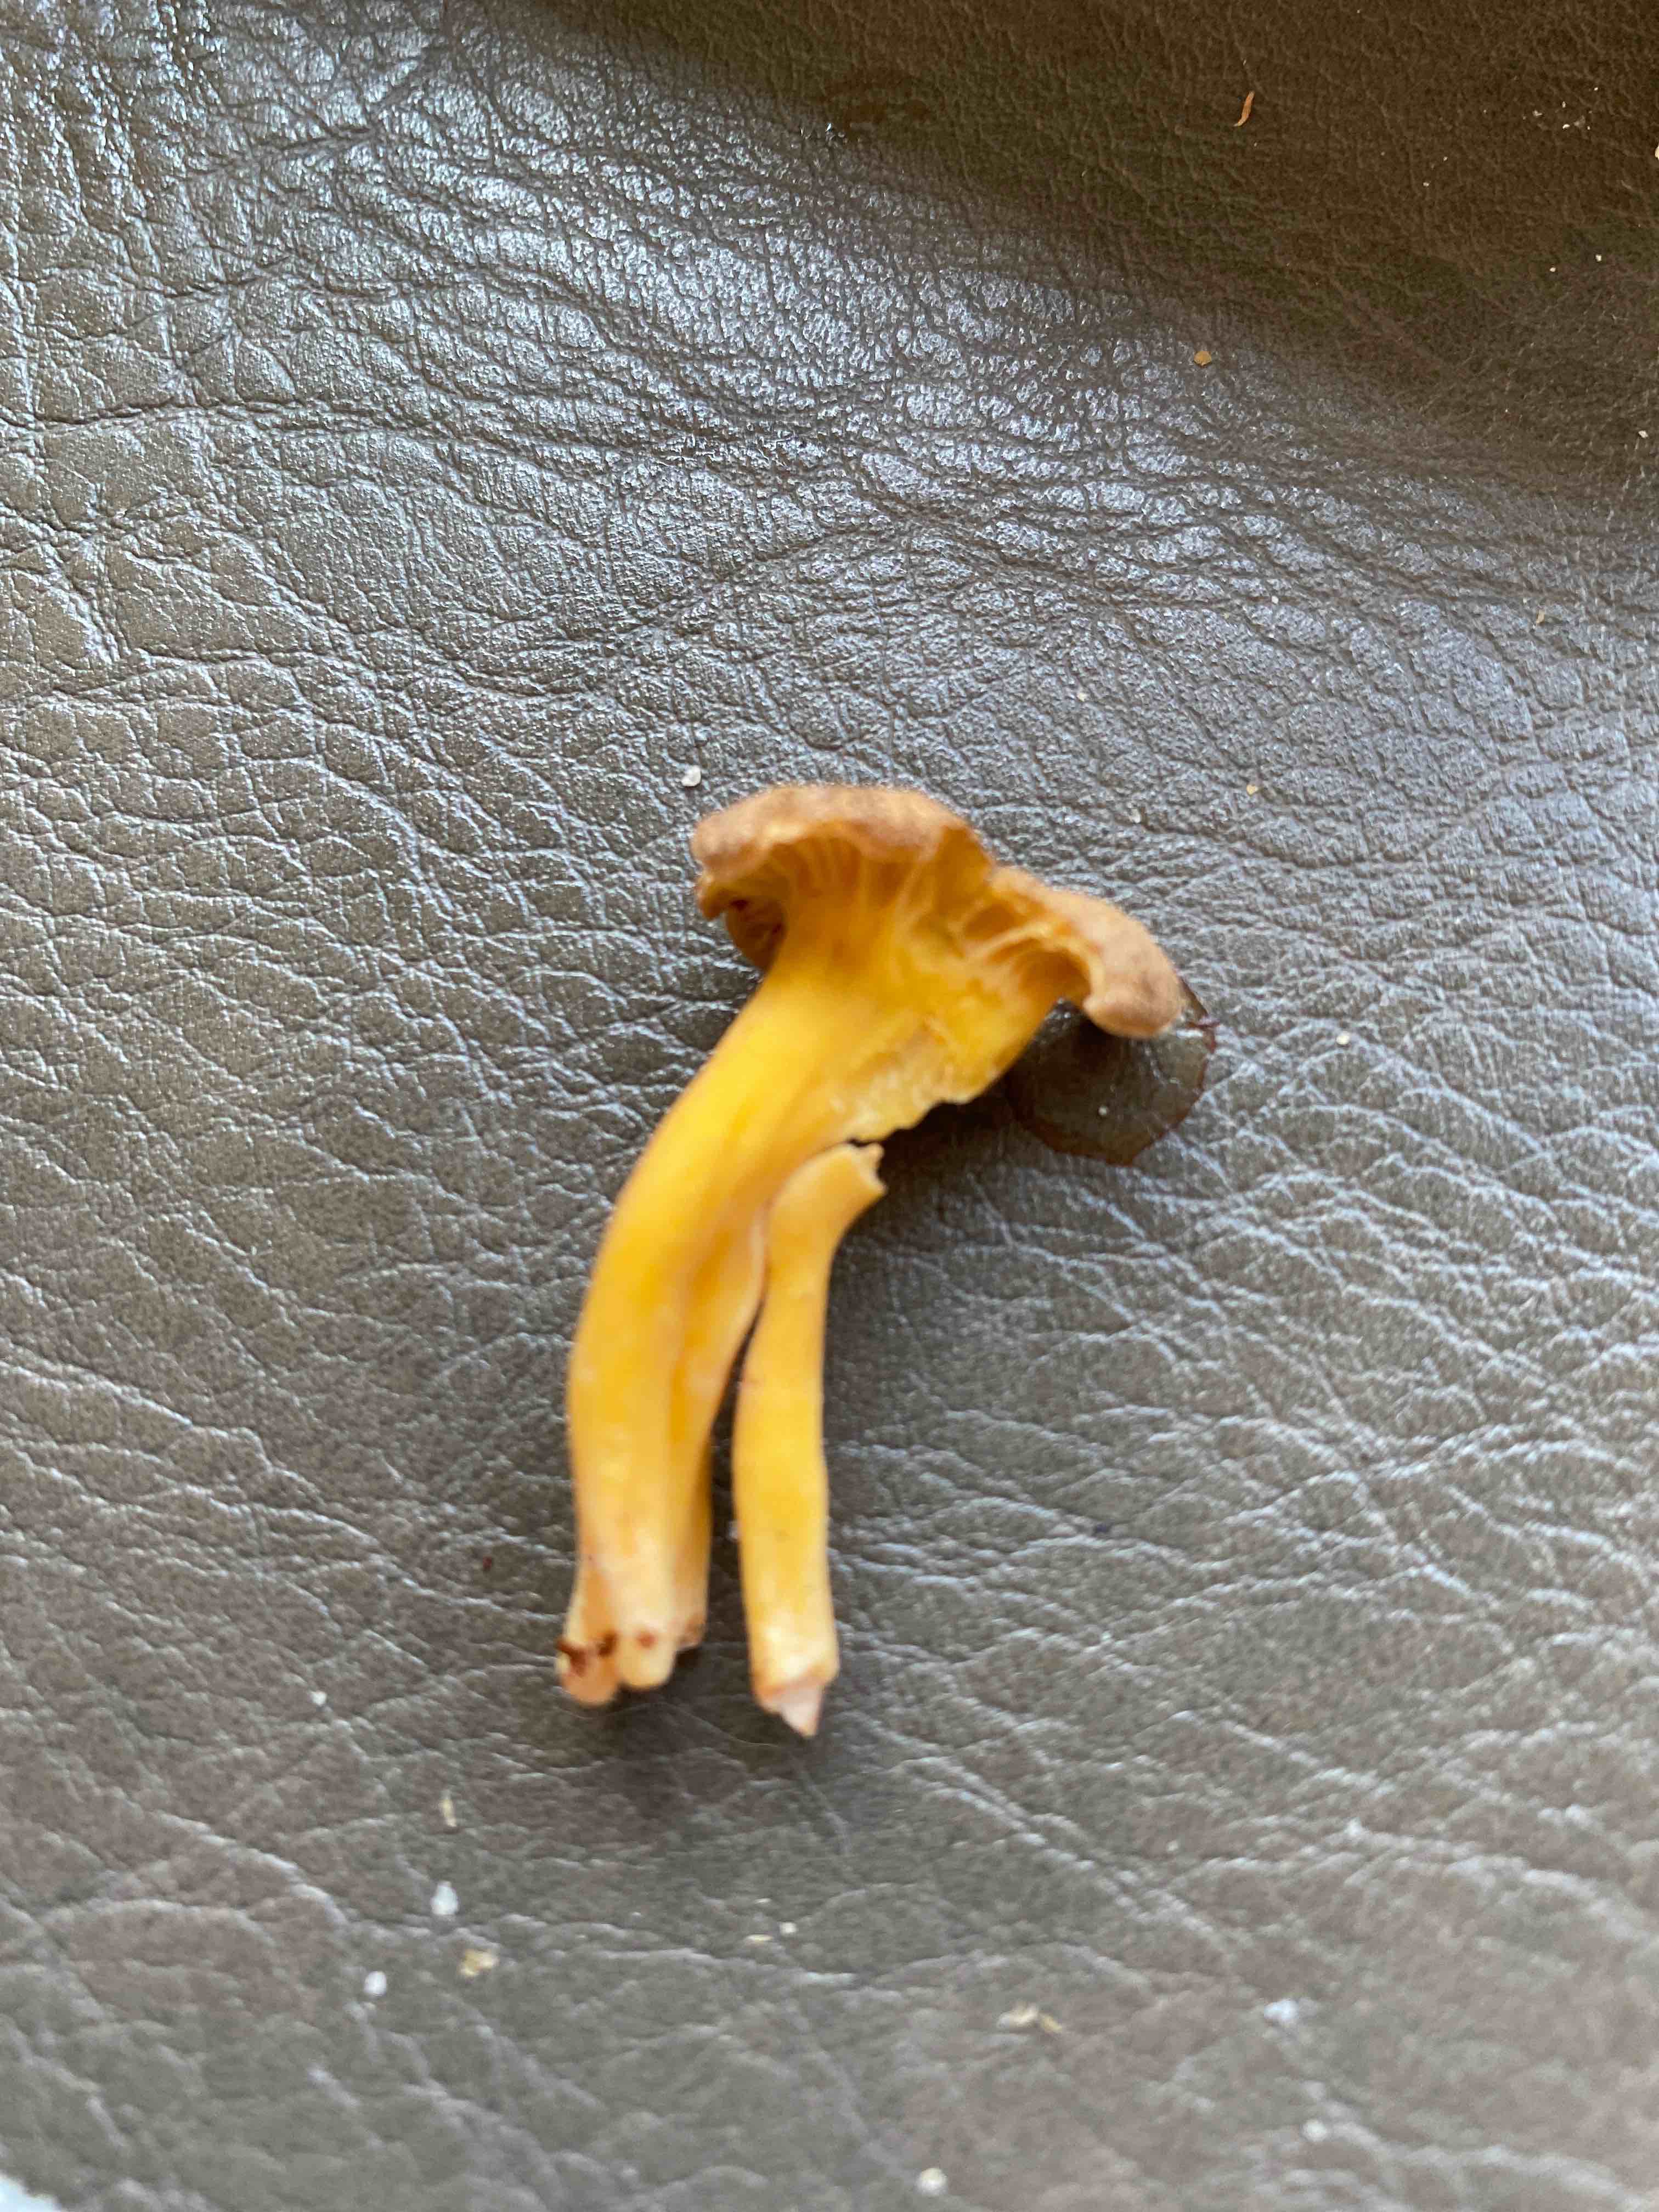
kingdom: Fungi
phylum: Basidiomycota
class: Agaricomycetes
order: Cantharellales
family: Hydnaceae
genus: Craterellus
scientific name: Craterellus tubaeformis
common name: tragt-kantarel
